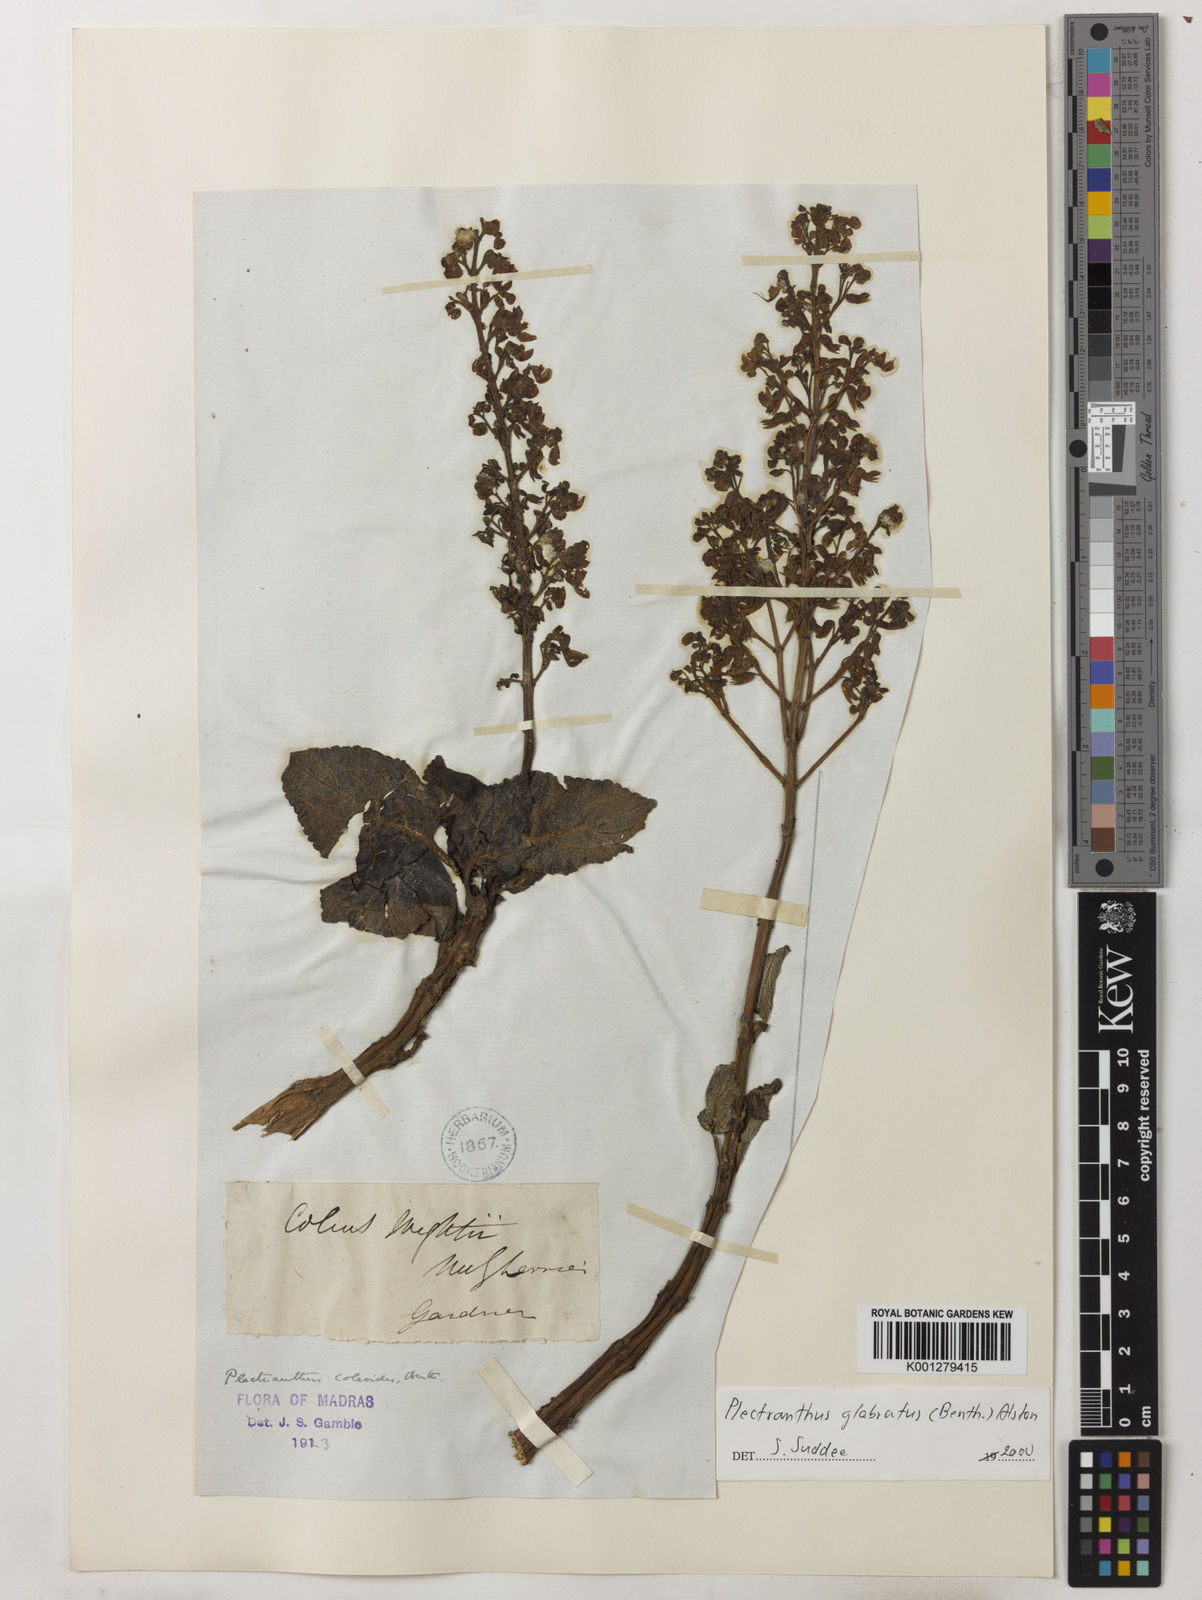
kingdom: Plantae
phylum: Tracheophyta
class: Magnoliopsida
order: Lamiales
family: Lamiaceae
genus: Coleus
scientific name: Coleus paniculatus
